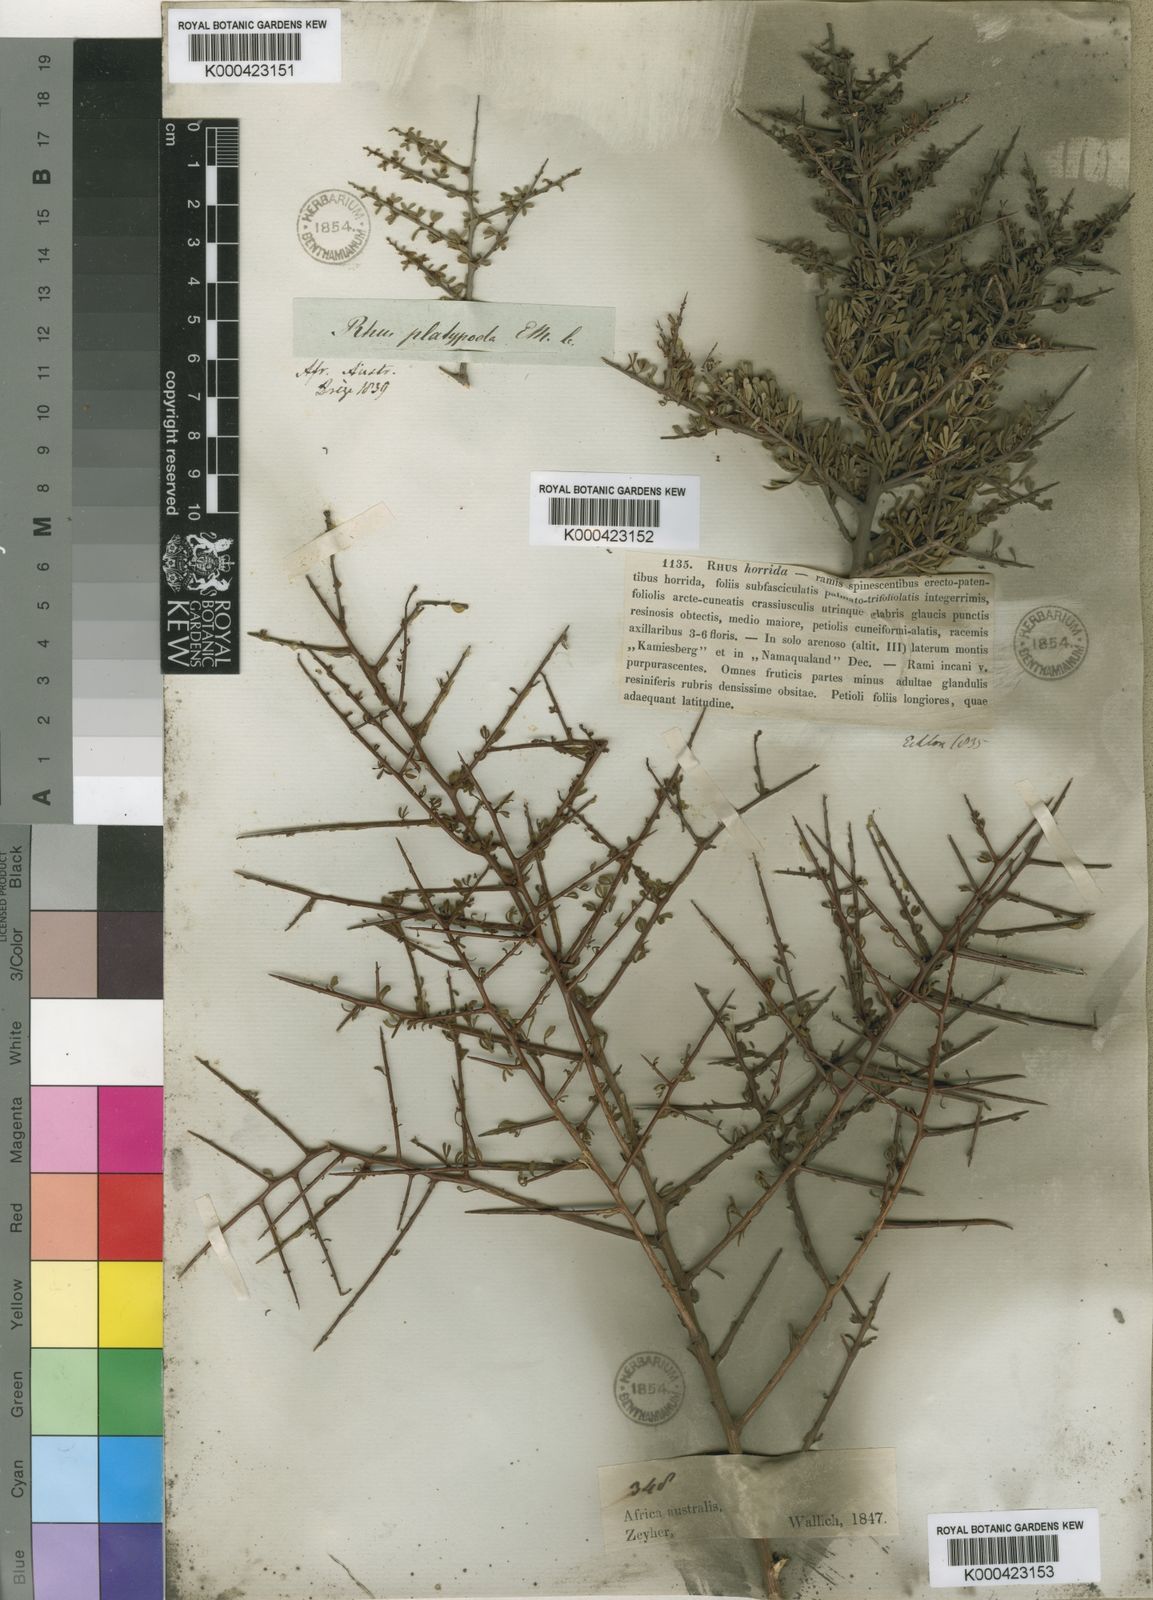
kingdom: Plantae
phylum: Tracheophyta
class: Magnoliopsida
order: Sapindales
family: Anacardiaceae
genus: Searsia
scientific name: Searsia horrida
